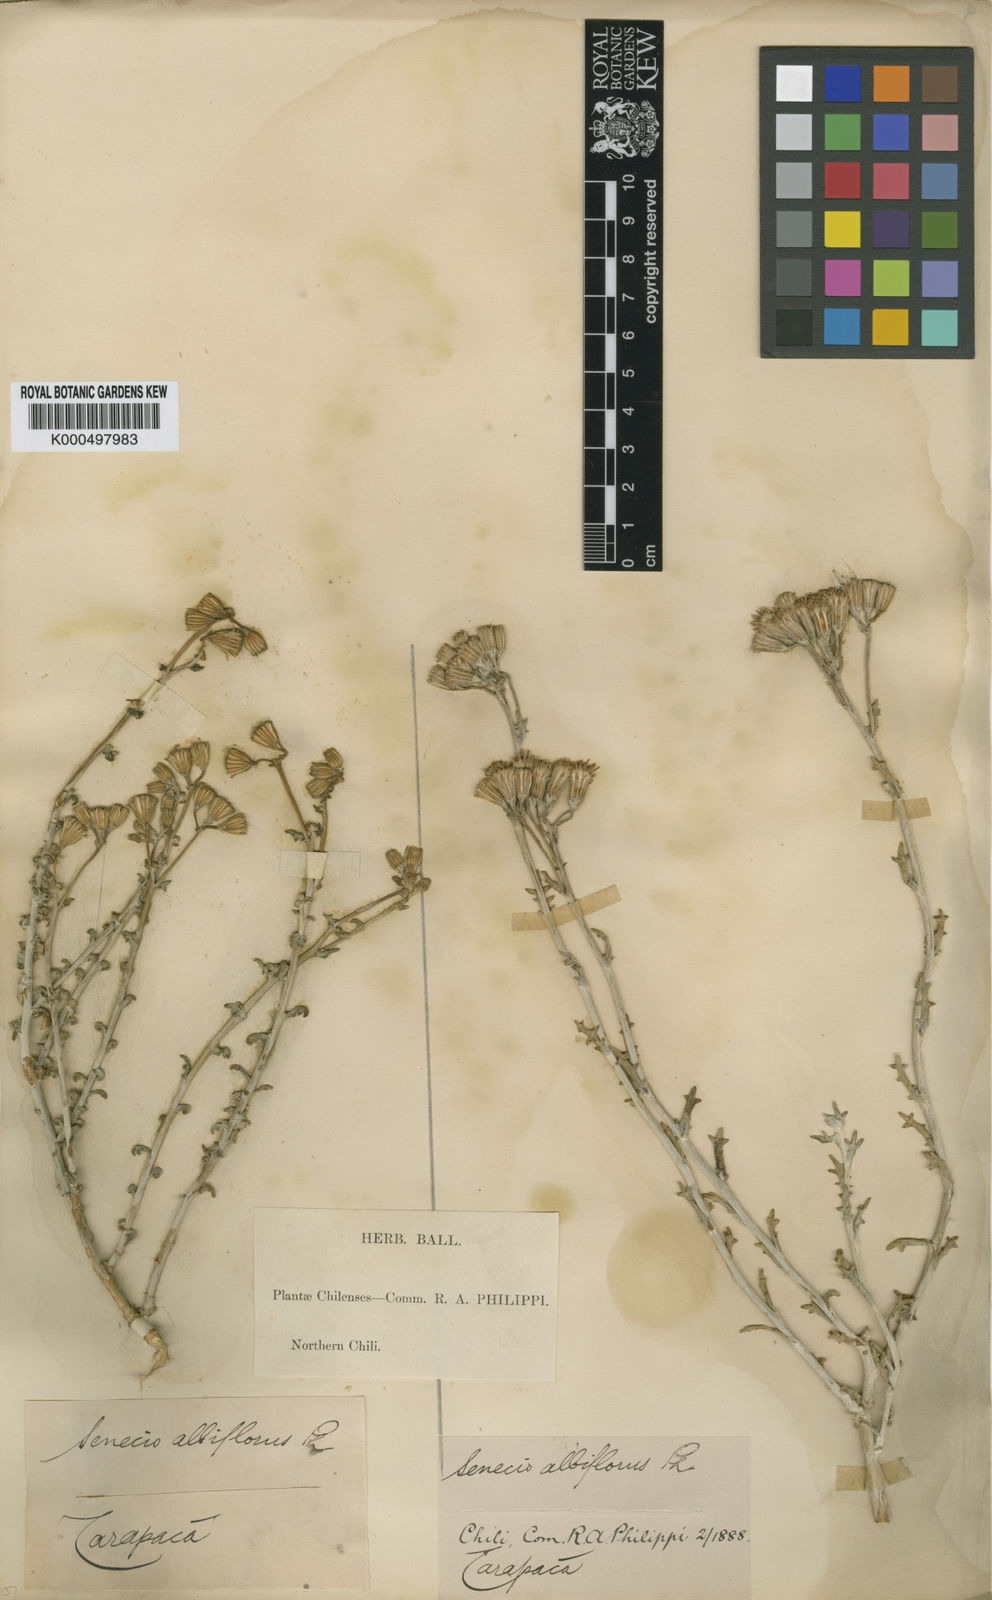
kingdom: Plantae
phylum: Tracheophyta
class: Magnoliopsida
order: Asterales
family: Asteraceae
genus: Senecio
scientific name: Senecio filaginoides
